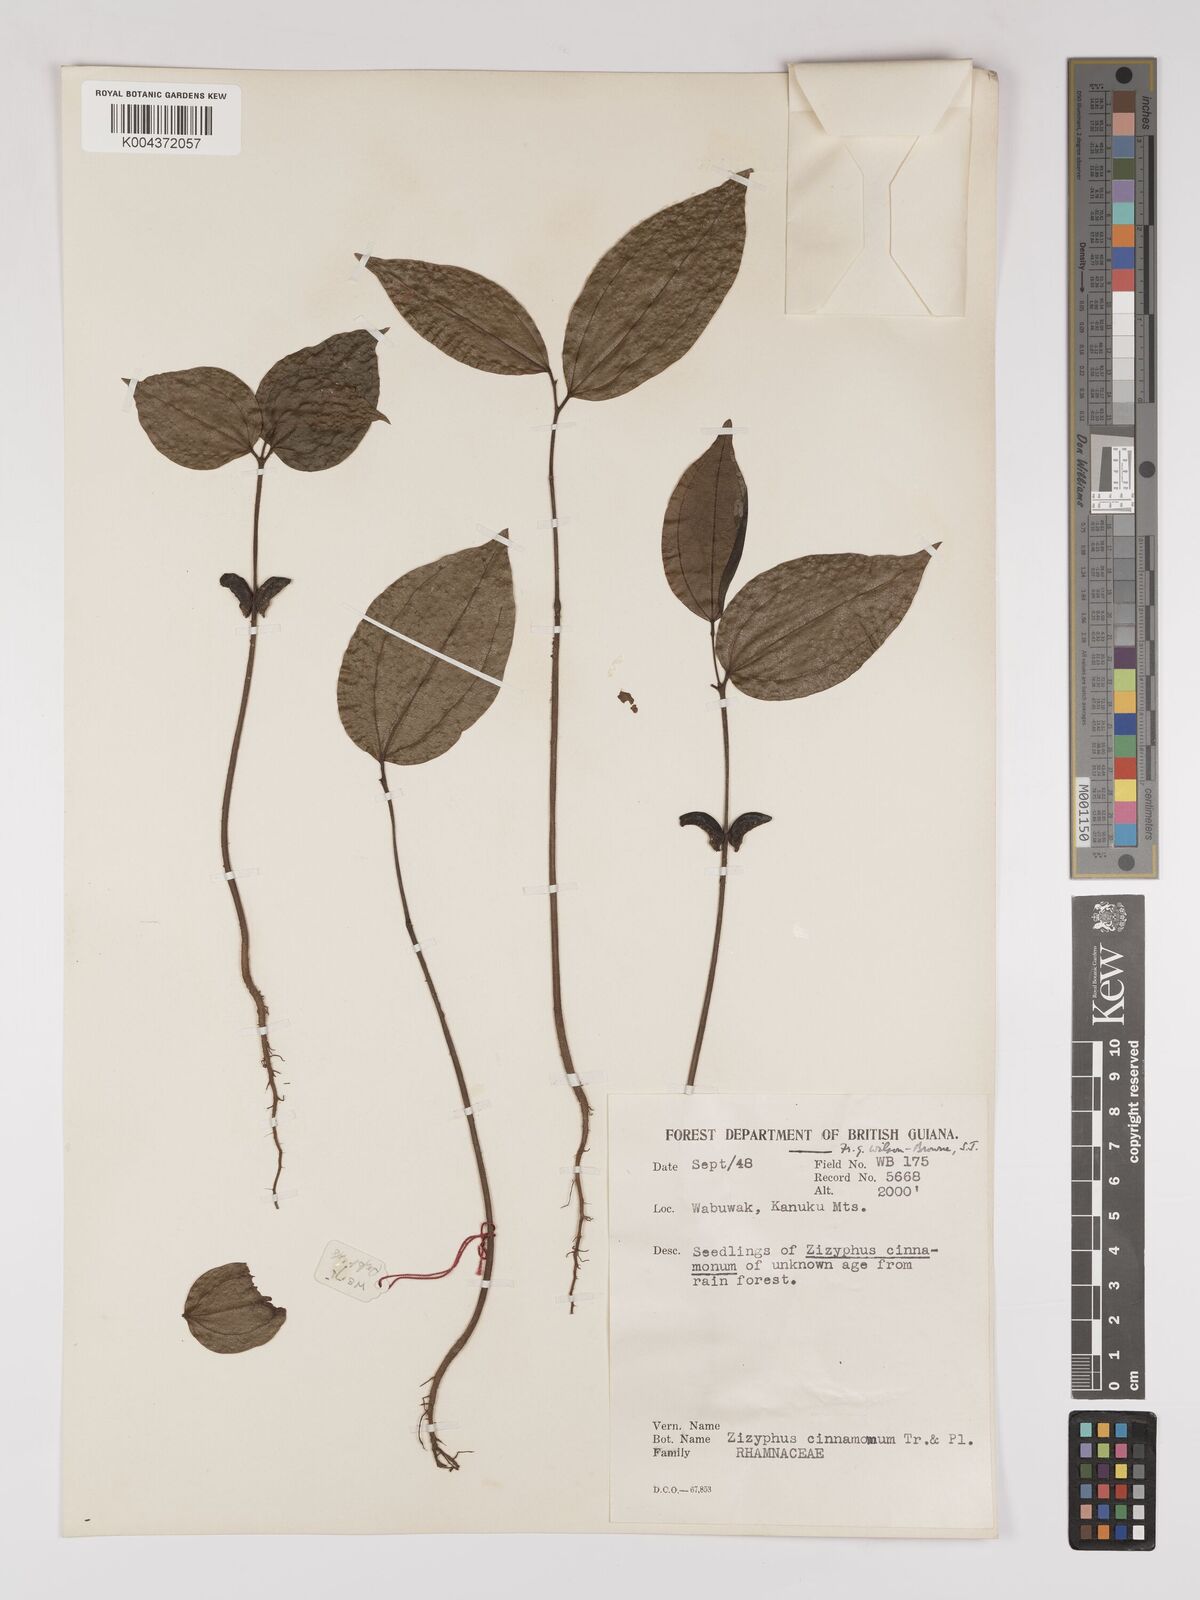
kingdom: Plantae
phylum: Tracheophyta
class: Magnoliopsida
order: Rosales
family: Rhamnaceae
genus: Sarcomphalus
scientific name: Sarcomphalus cinnamomum
